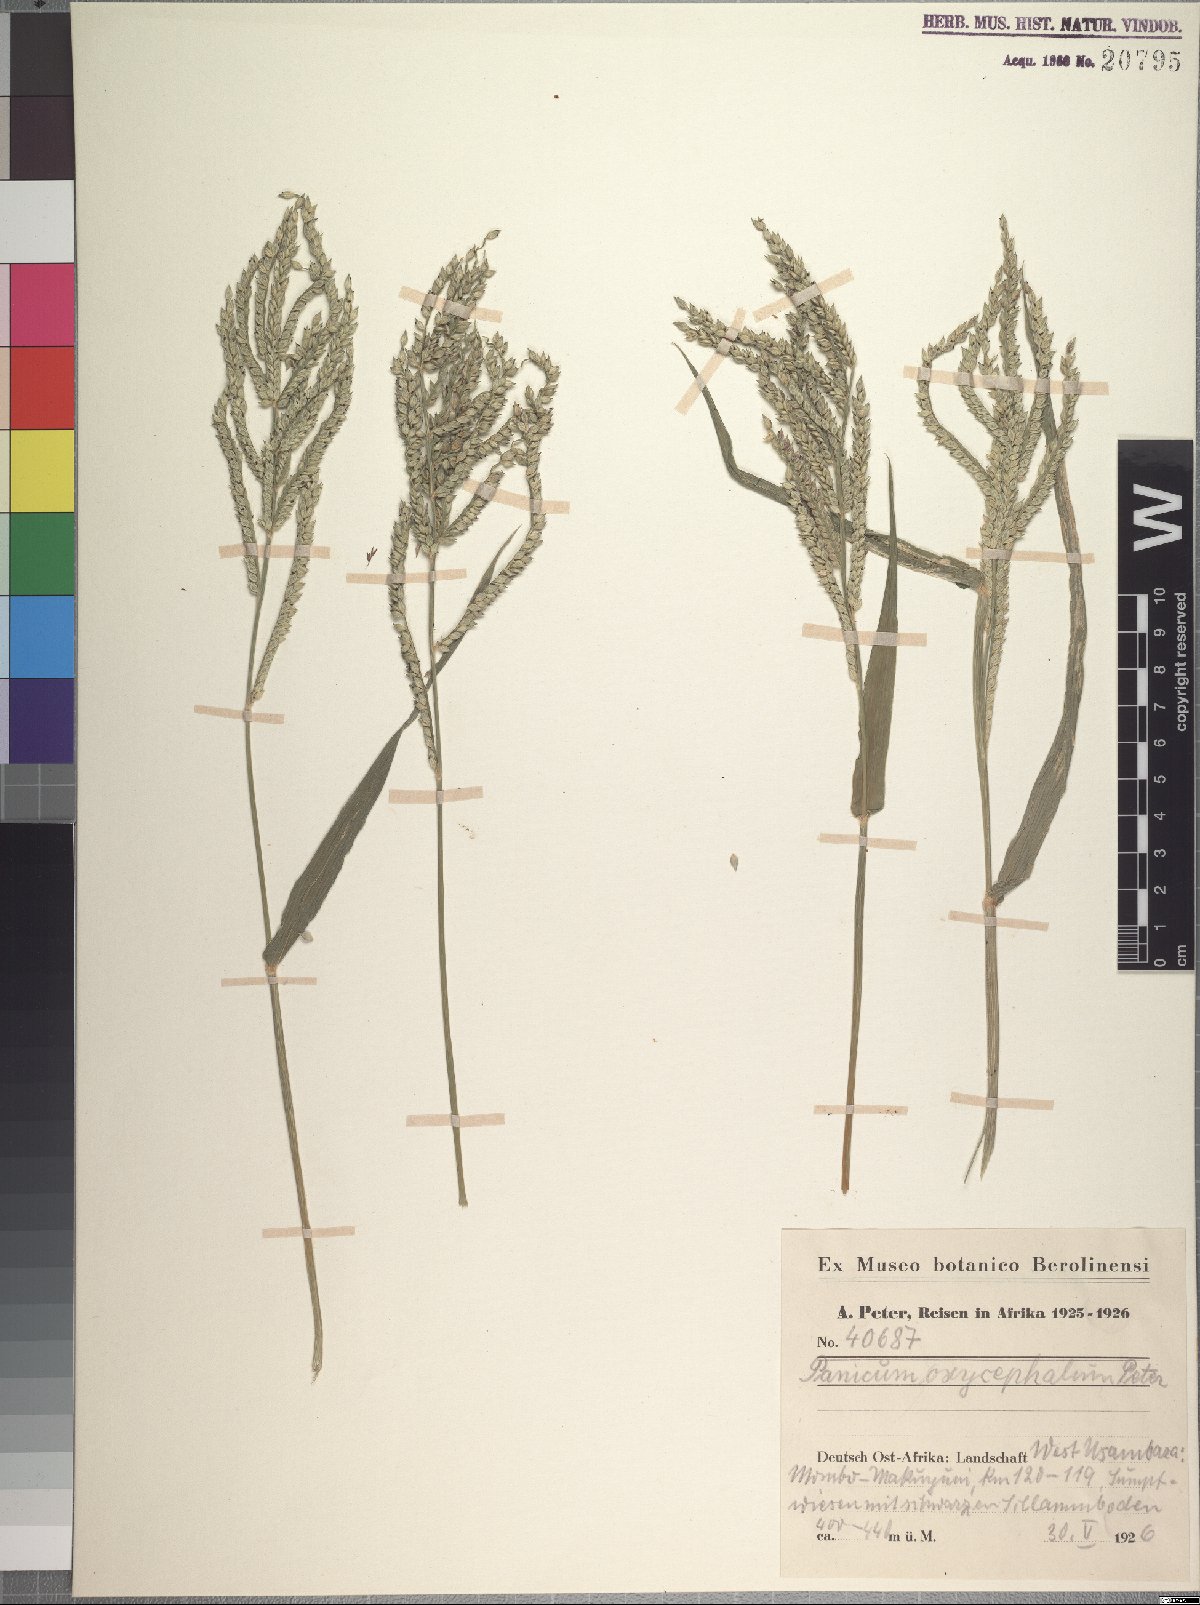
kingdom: Plantae
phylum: Tracheophyta
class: Liliopsida
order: Poales
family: Poaceae
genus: Urochloa
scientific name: Urochloa panicoides
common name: Sharp-flowered signal-grass
